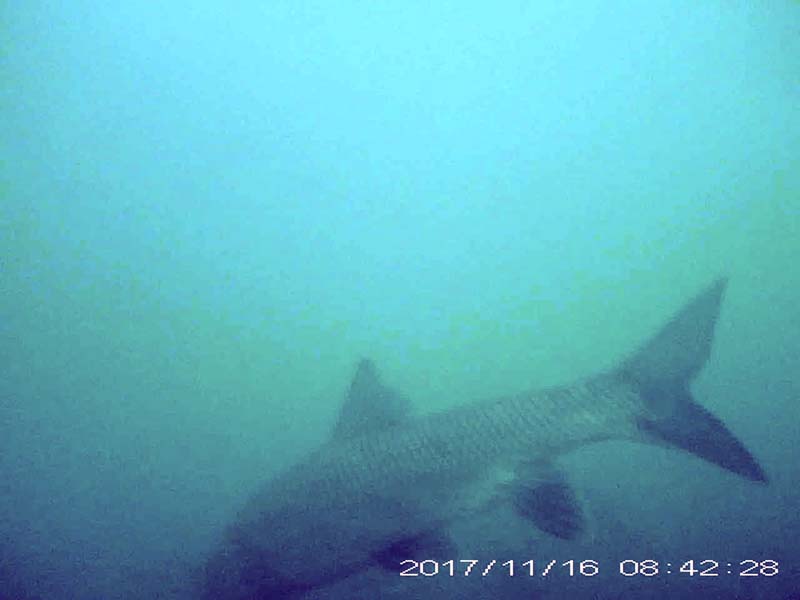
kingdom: Animalia
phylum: Chordata
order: Cypriniformes
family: Cyprinidae
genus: Hemibarbus
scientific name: Hemibarbus labeo
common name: ニゴイ
